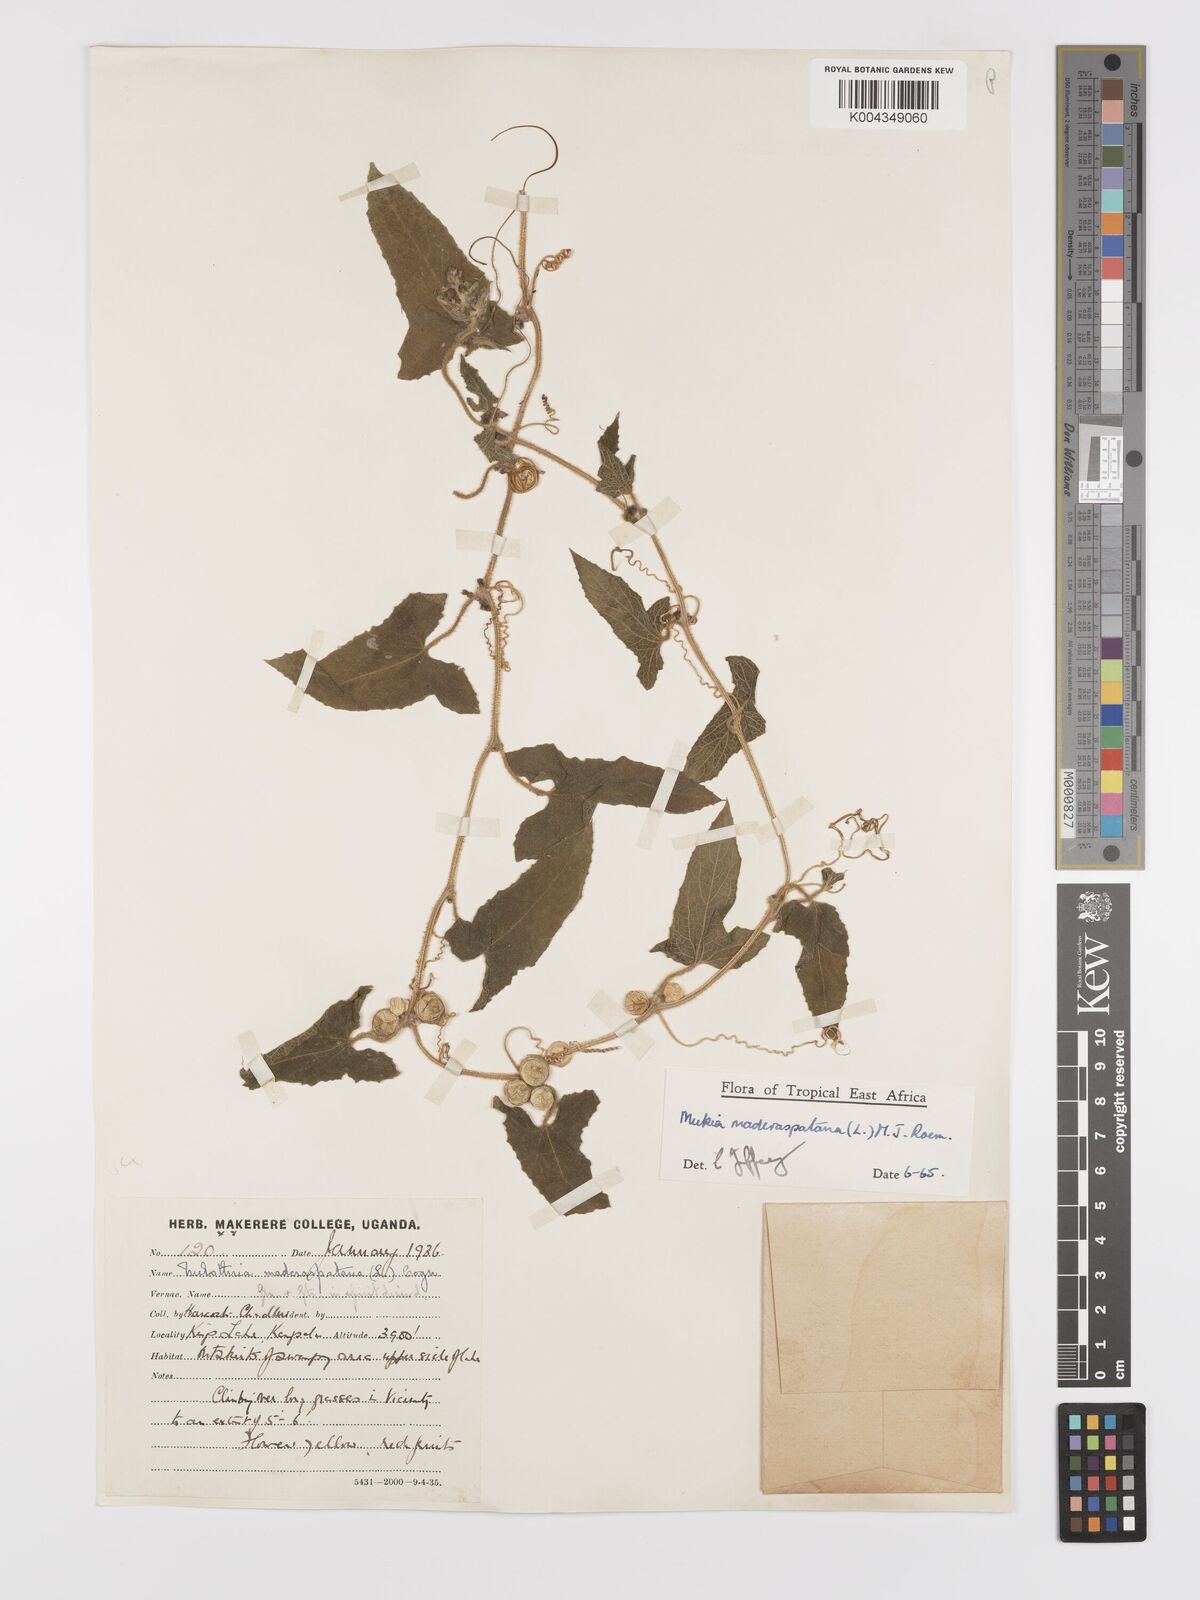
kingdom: Plantae
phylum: Tracheophyta
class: Magnoliopsida
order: Cucurbitales
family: Cucurbitaceae
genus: Cucumis
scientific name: Cucumis maderaspatanus
